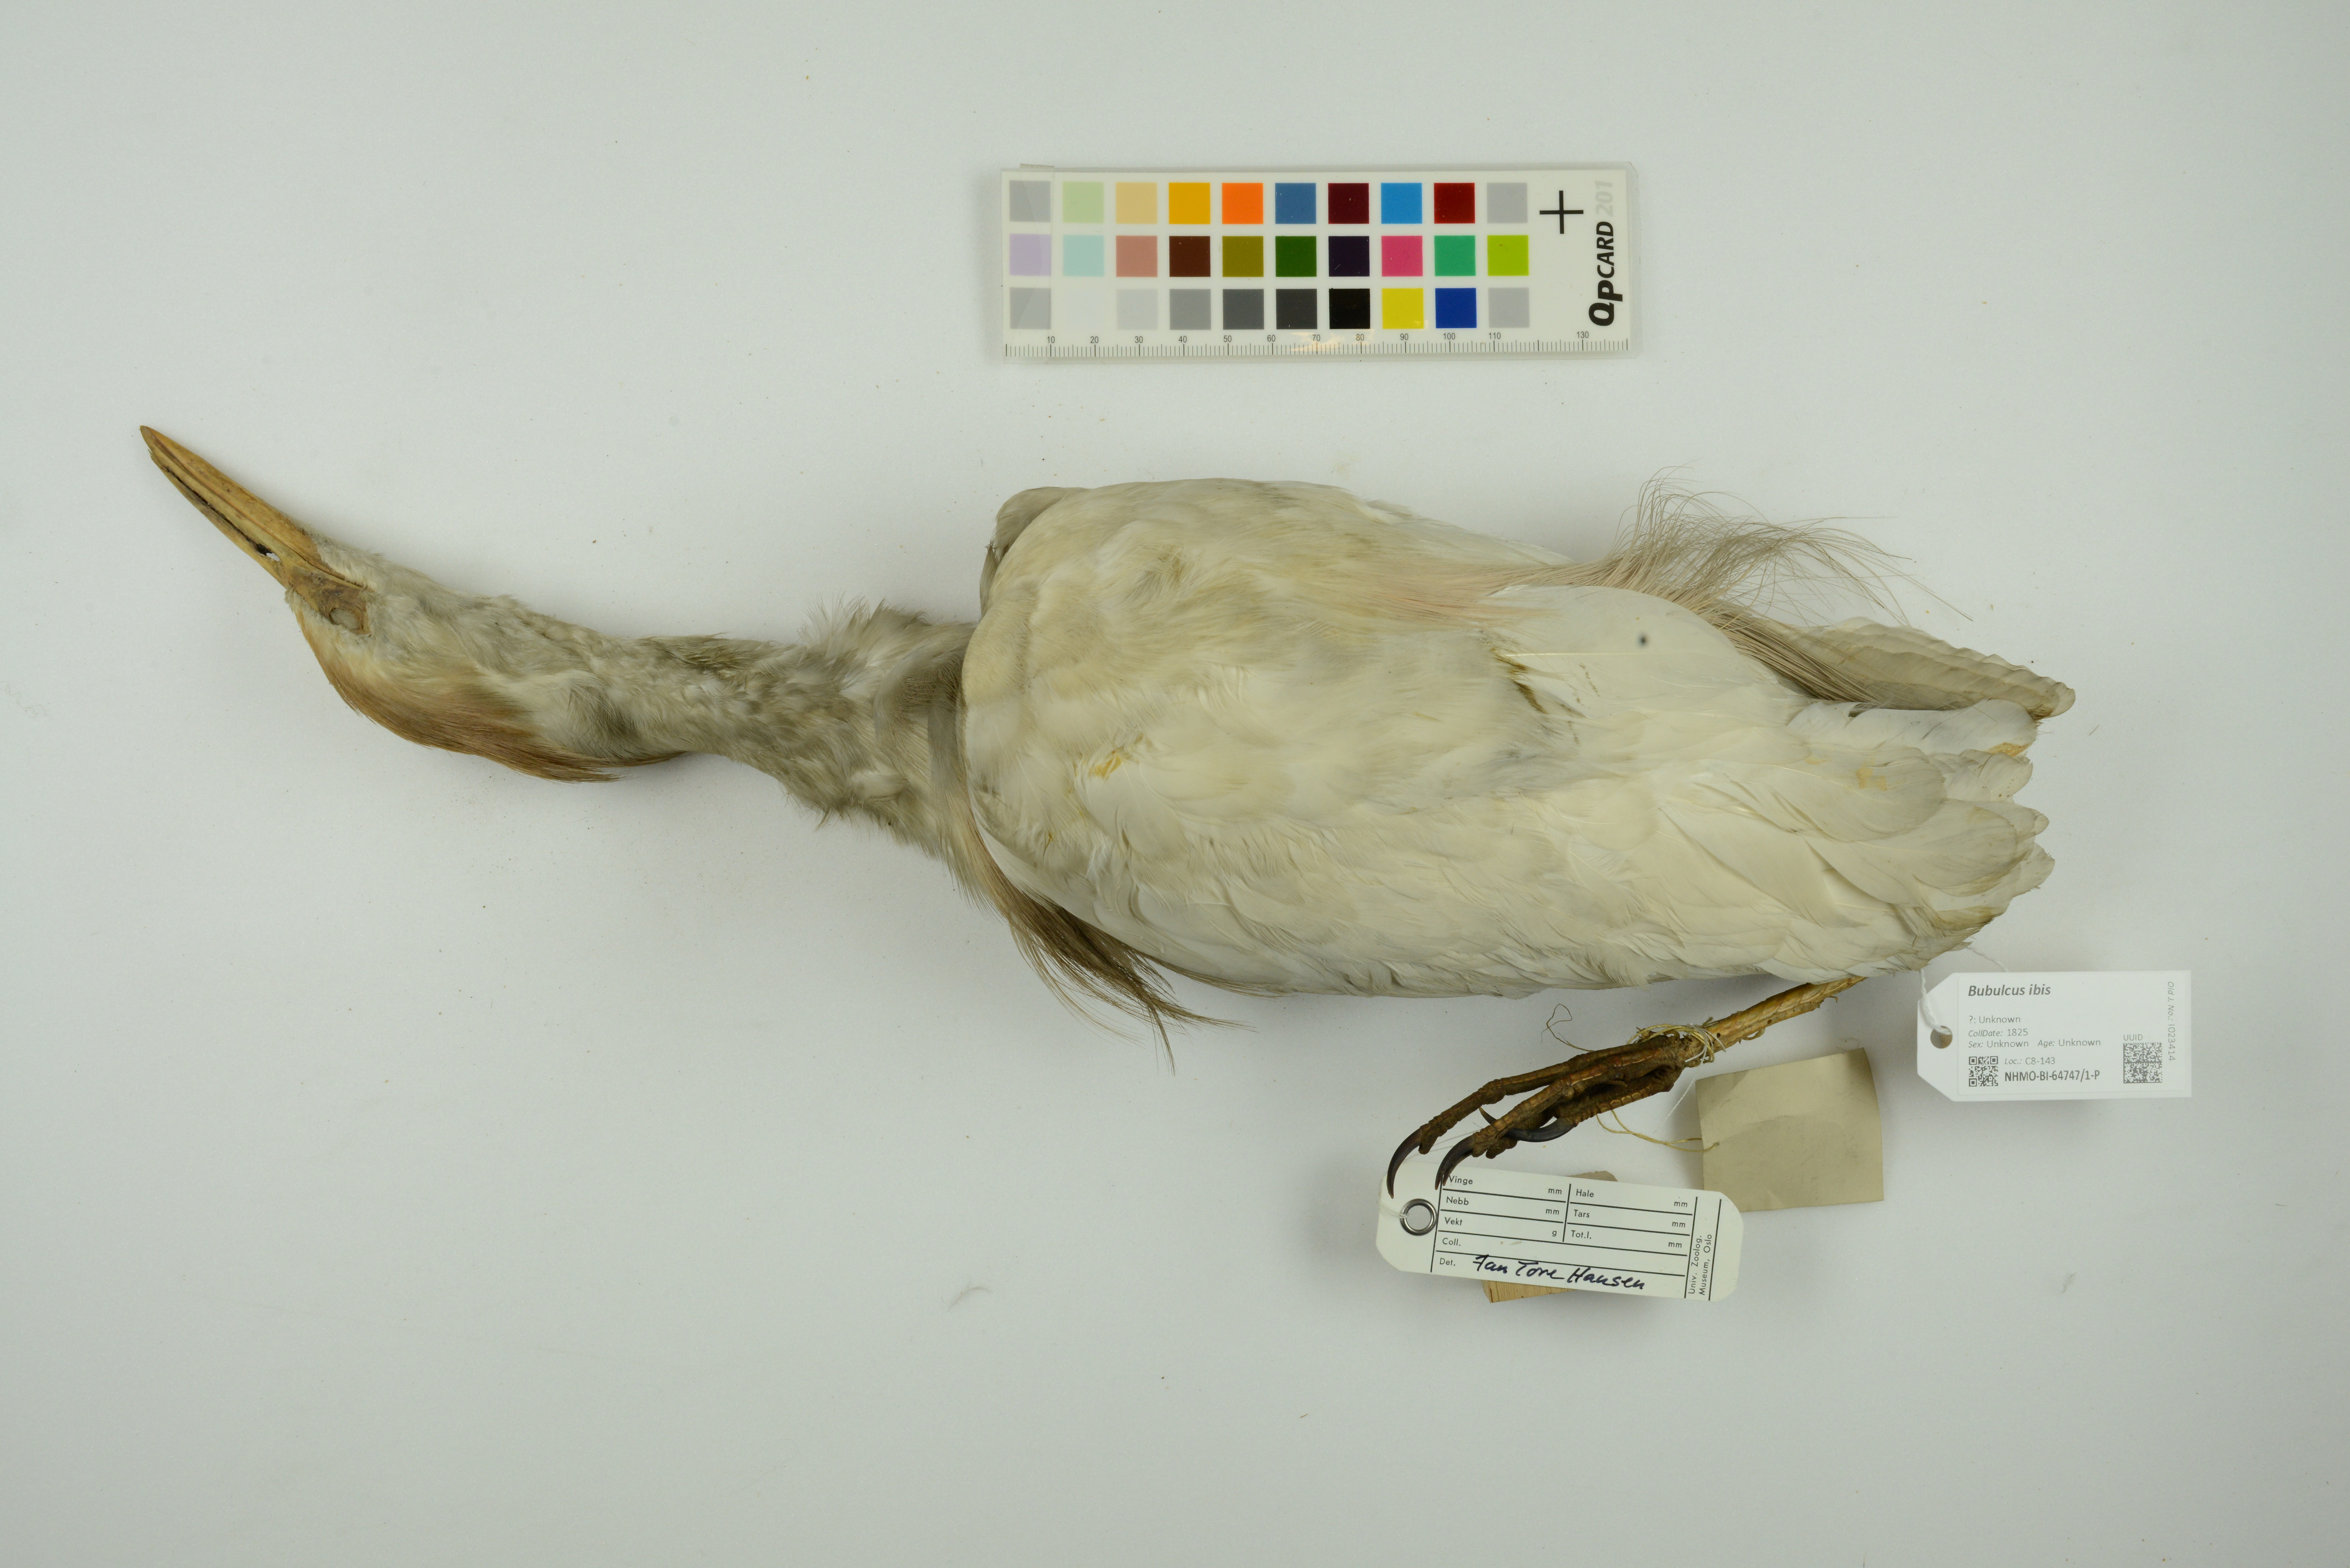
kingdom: Animalia
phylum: Chordata
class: Aves
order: Pelecaniformes
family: Ardeidae
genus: Bubulcus
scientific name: Bubulcus ibis
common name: Cattle egret
